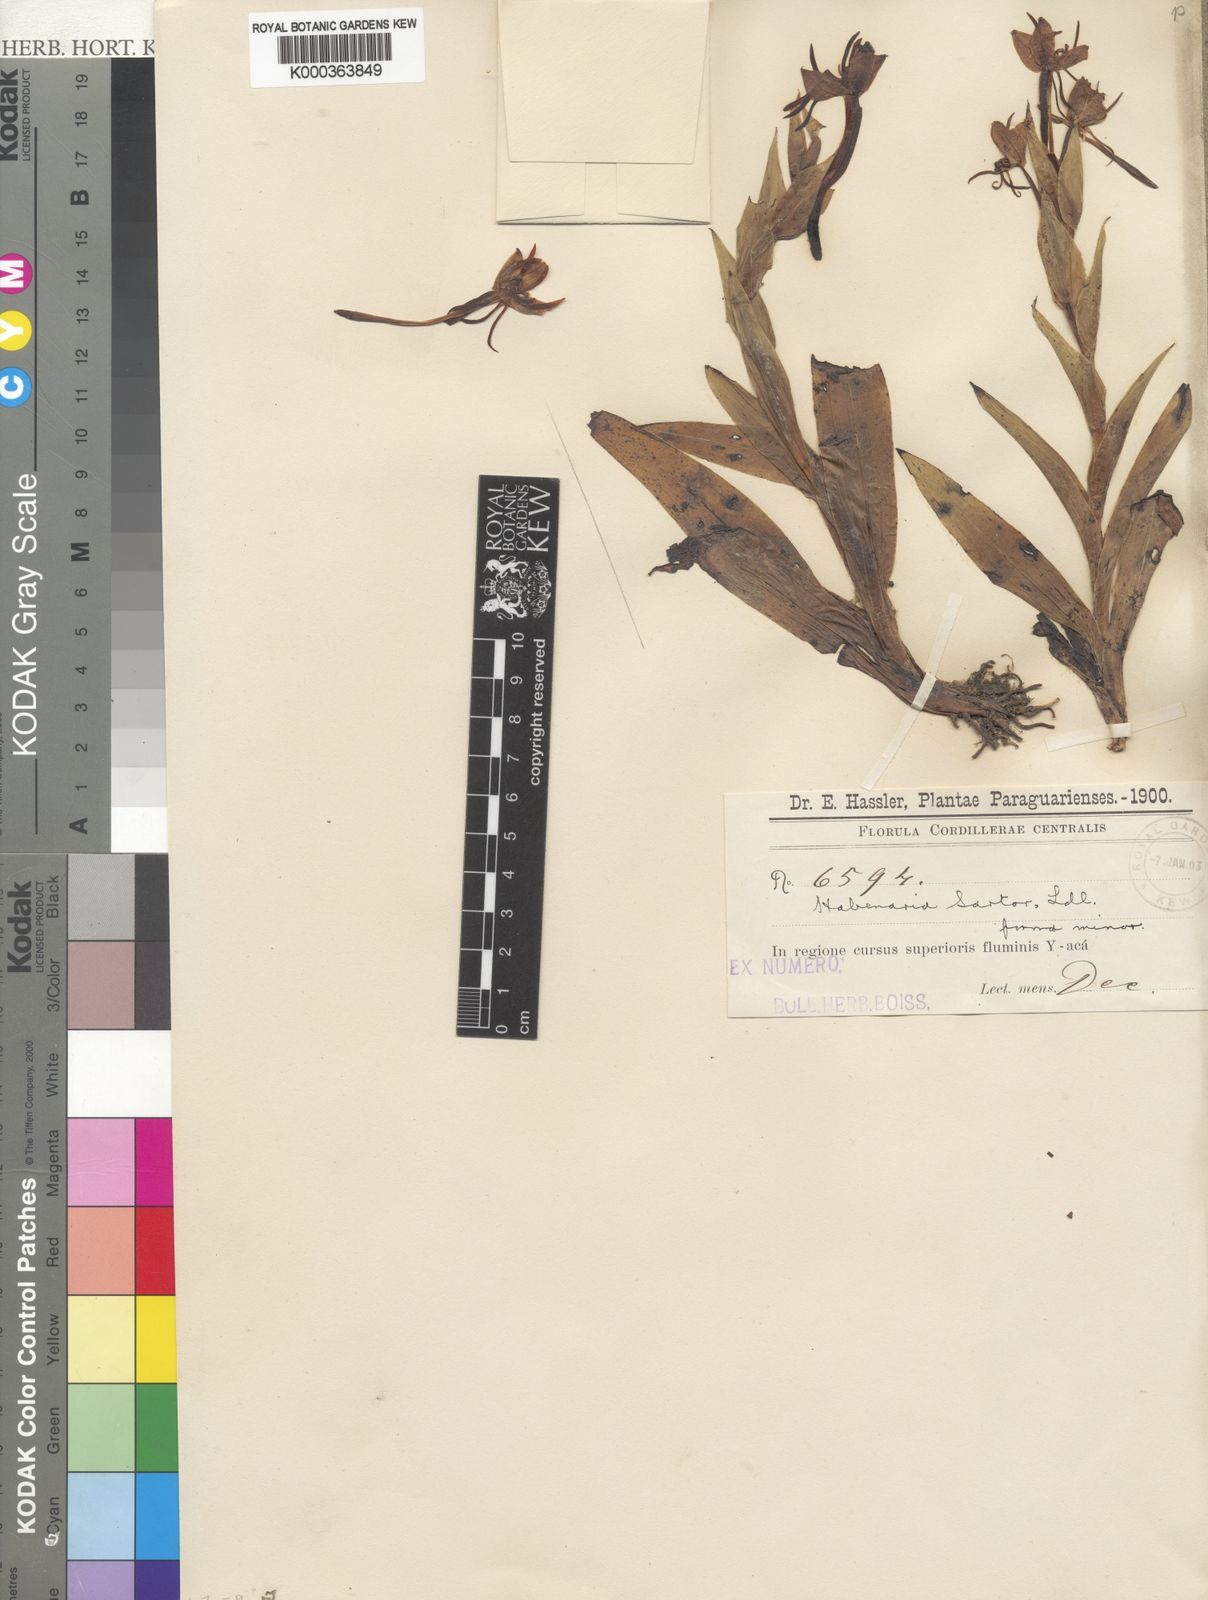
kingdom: Plantae
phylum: Tracheophyta
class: Liliopsida
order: Asparagales
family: Orchidaceae
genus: Habenaria
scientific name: Habenaria bractescens
